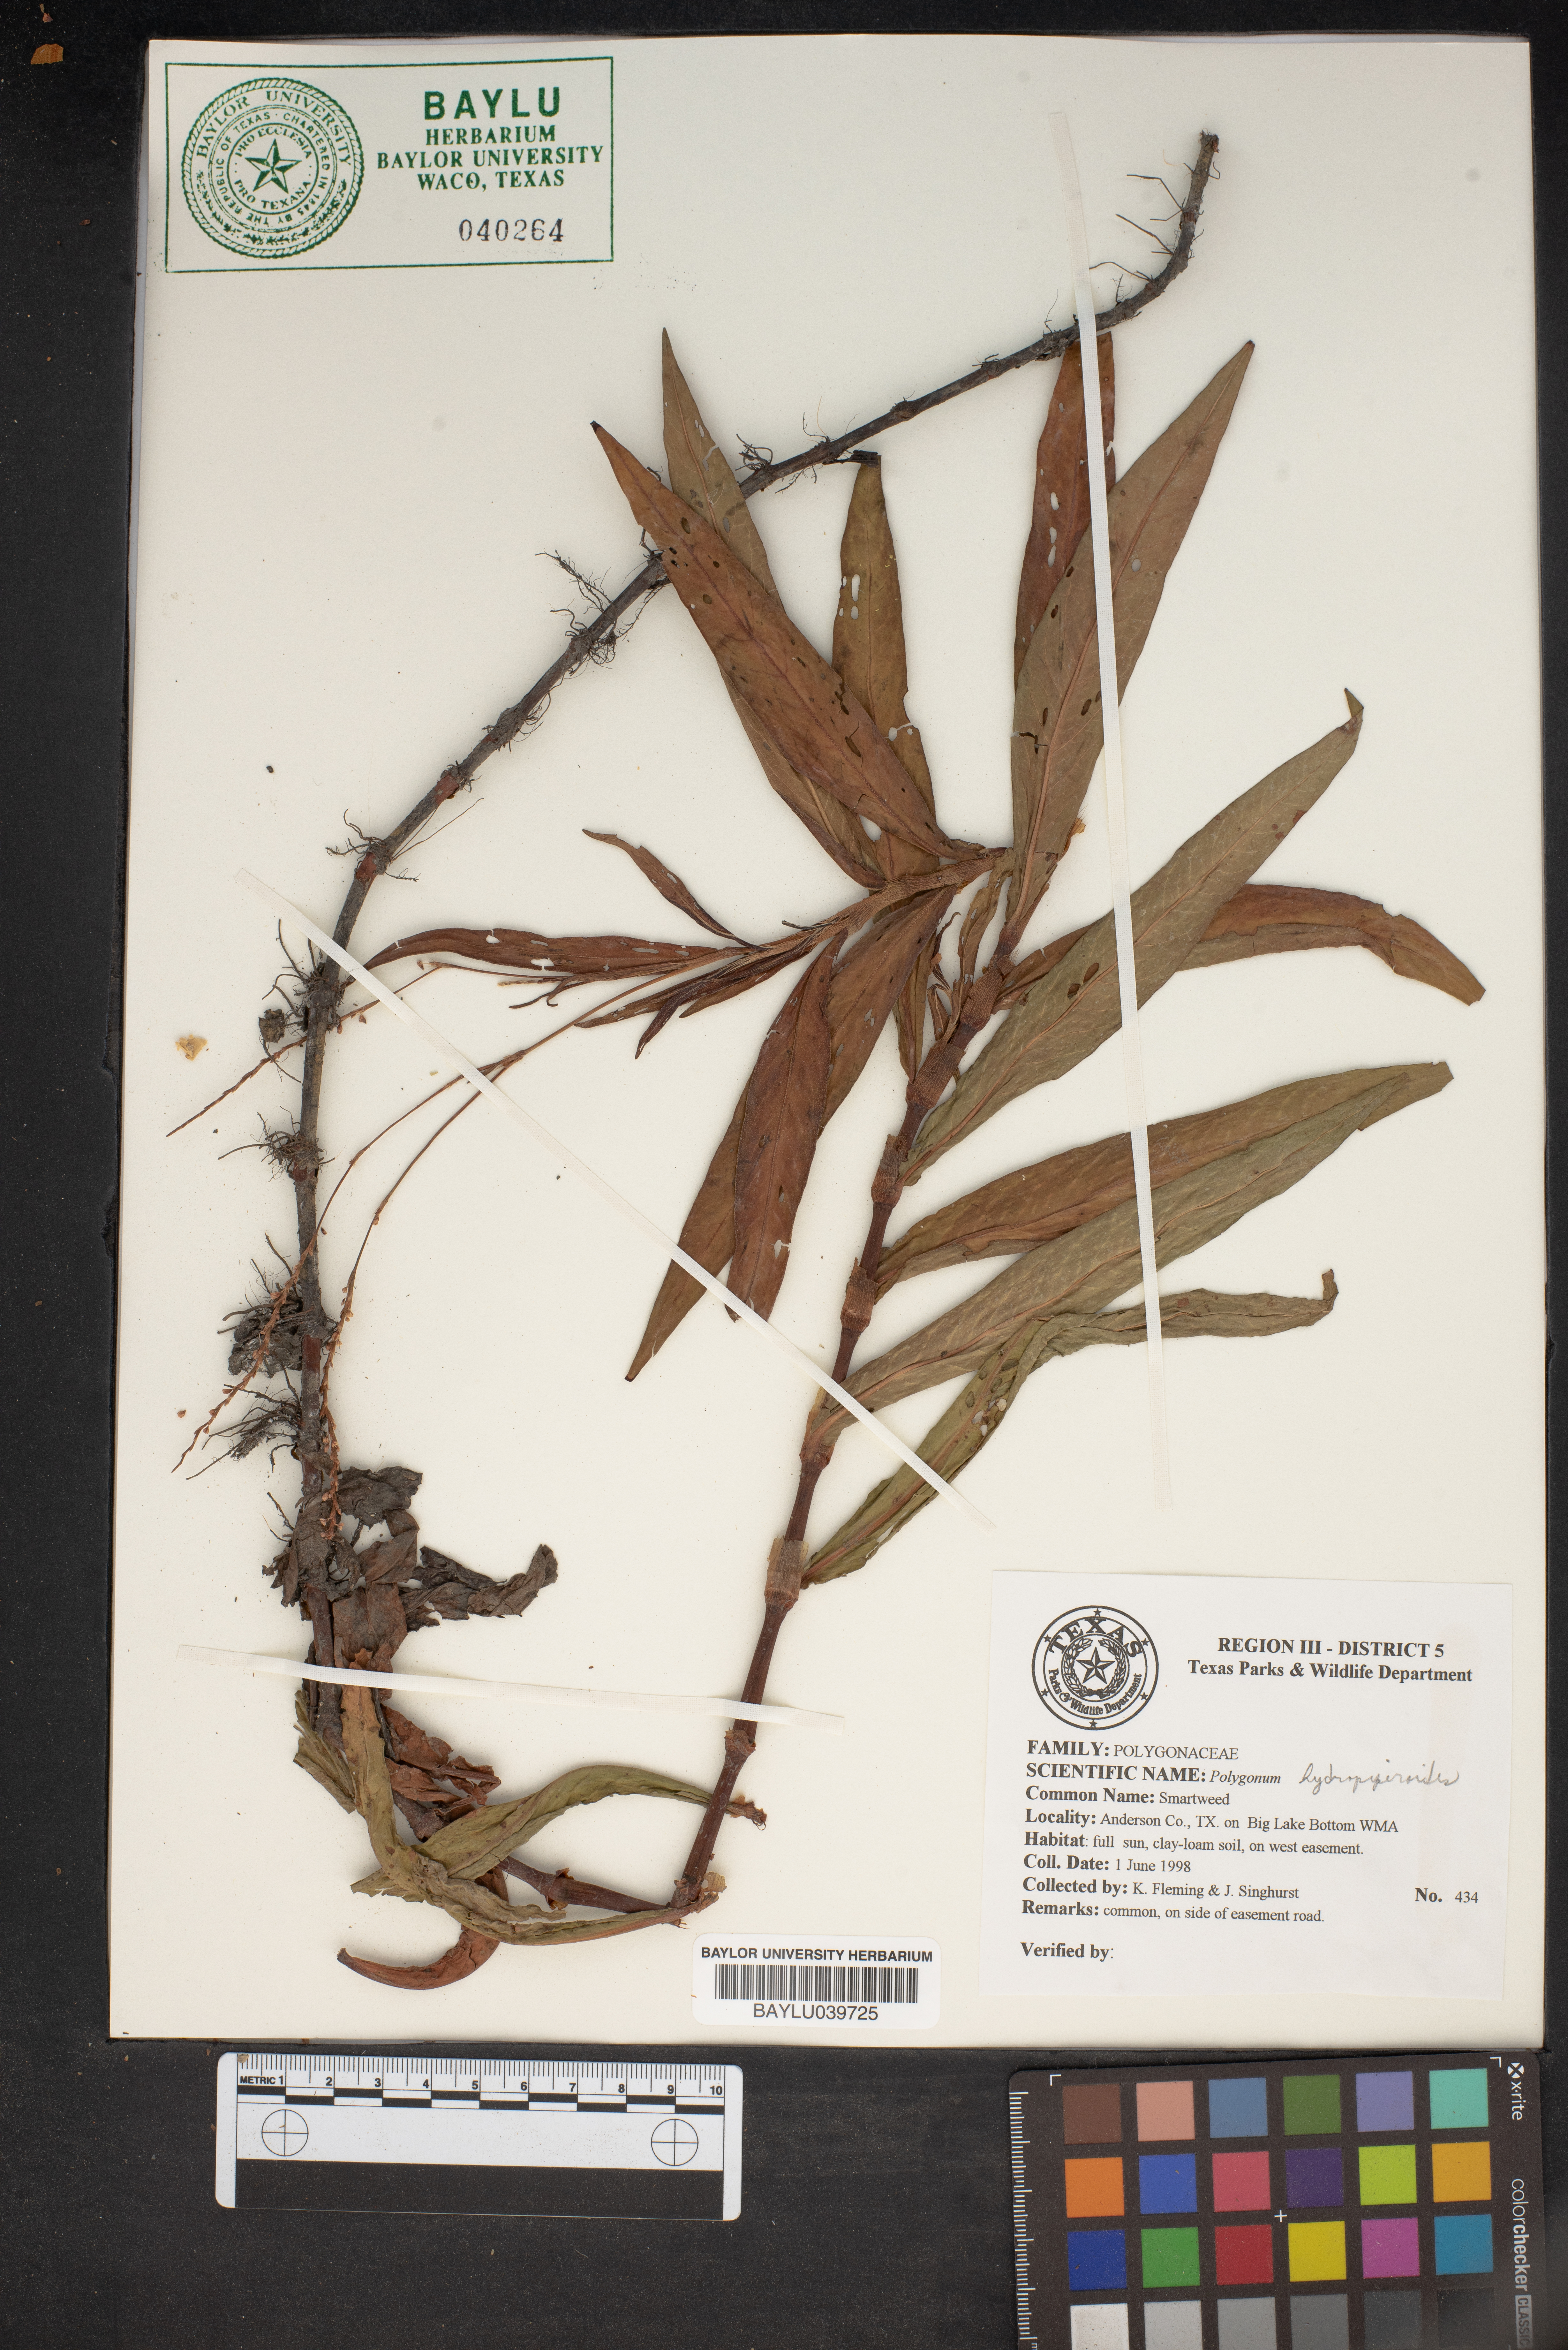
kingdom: Plantae
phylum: Tracheophyta
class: Magnoliopsida
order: Caryophyllales
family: Polygonaceae
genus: Persicaria
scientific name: Persicaria hydropiperoides
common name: Swamp smartweed
